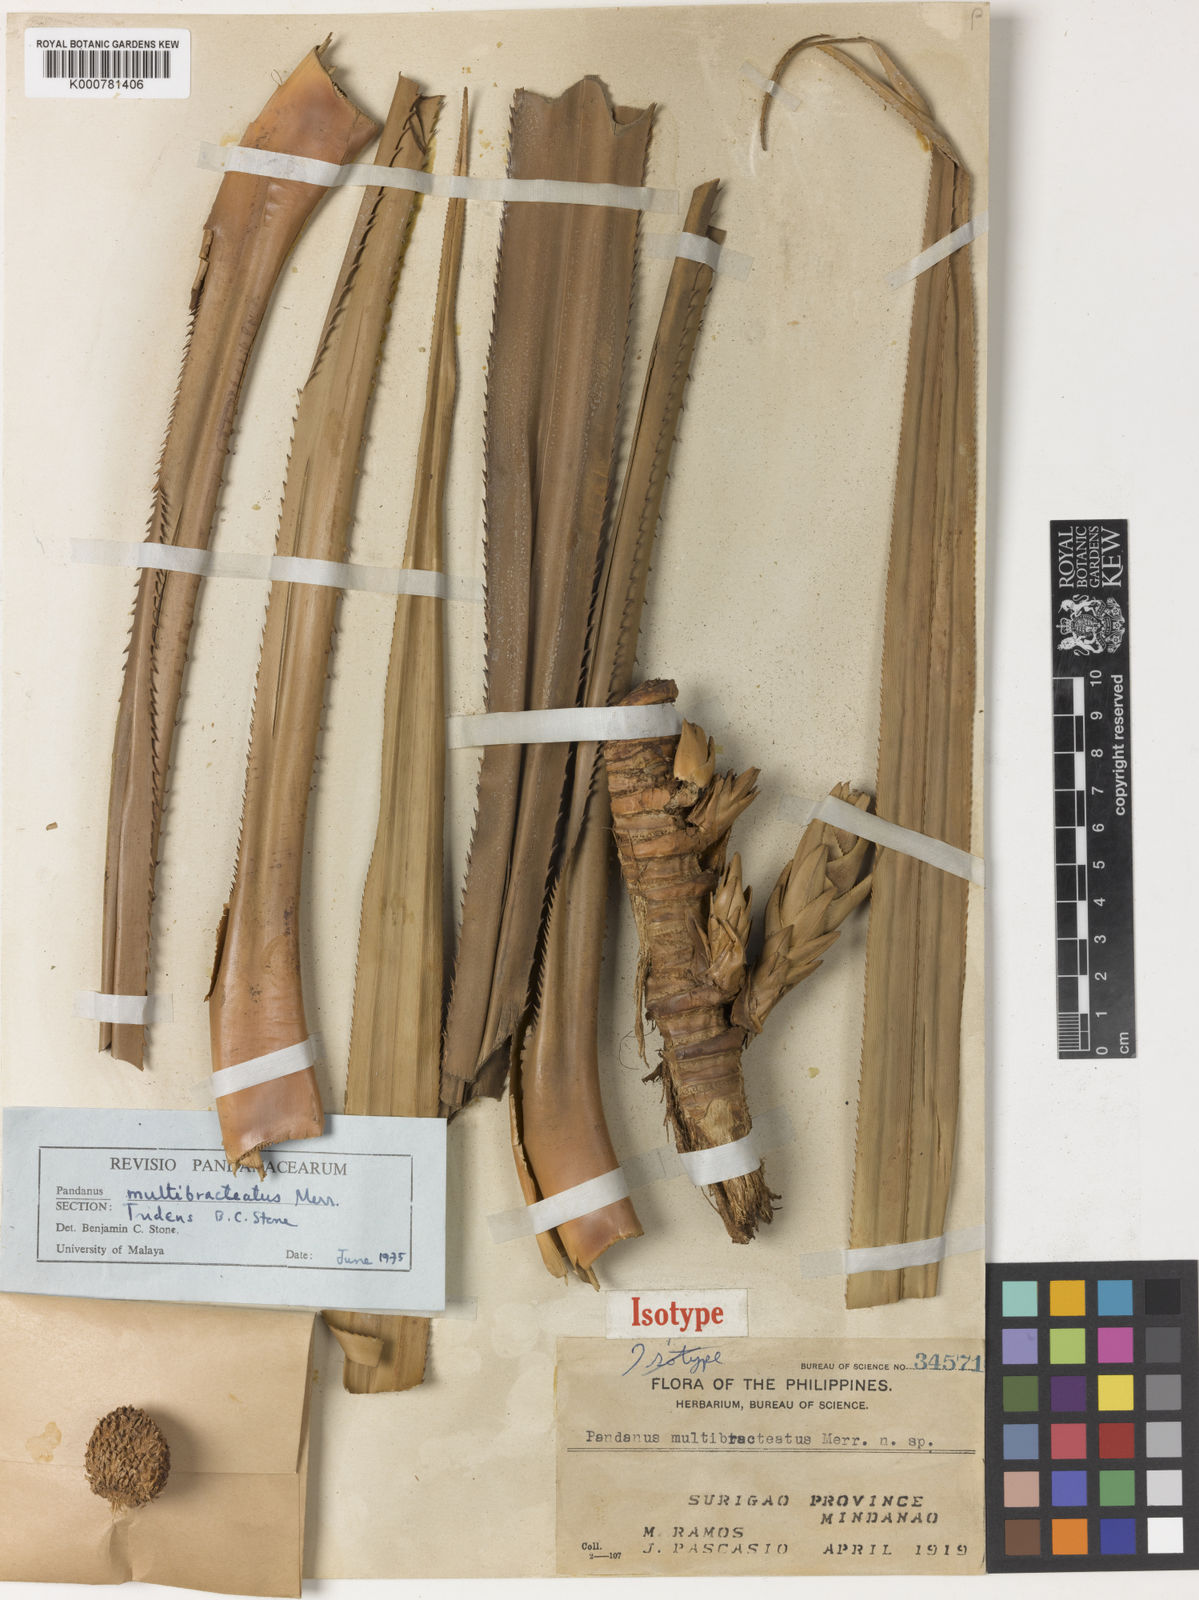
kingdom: Plantae
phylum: Tracheophyta
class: Liliopsida
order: Pandanales
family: Pandanaceae
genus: Pandanus
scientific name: Pandanus
